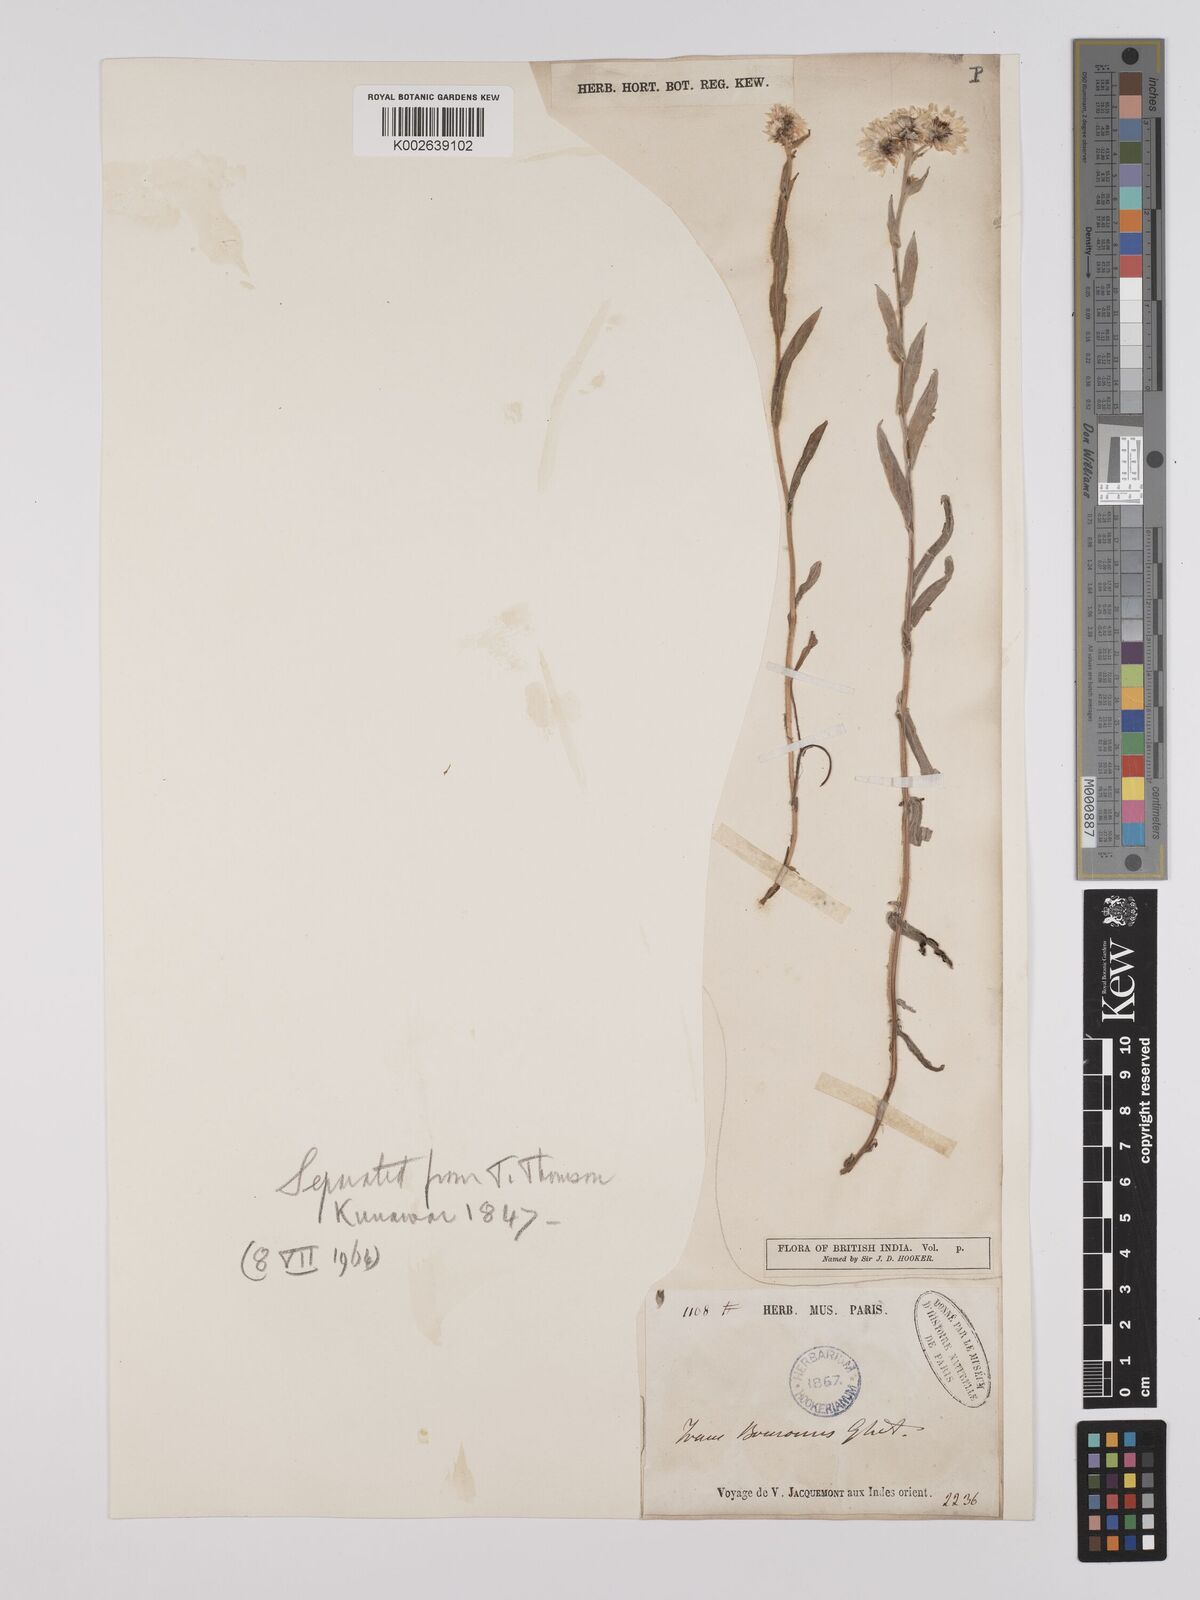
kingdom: Plantae
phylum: Tracheophyta
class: Magnoliopsida
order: Asterales
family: Asteraceae
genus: Anaphalioides
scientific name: Anaphalioides trinervis
